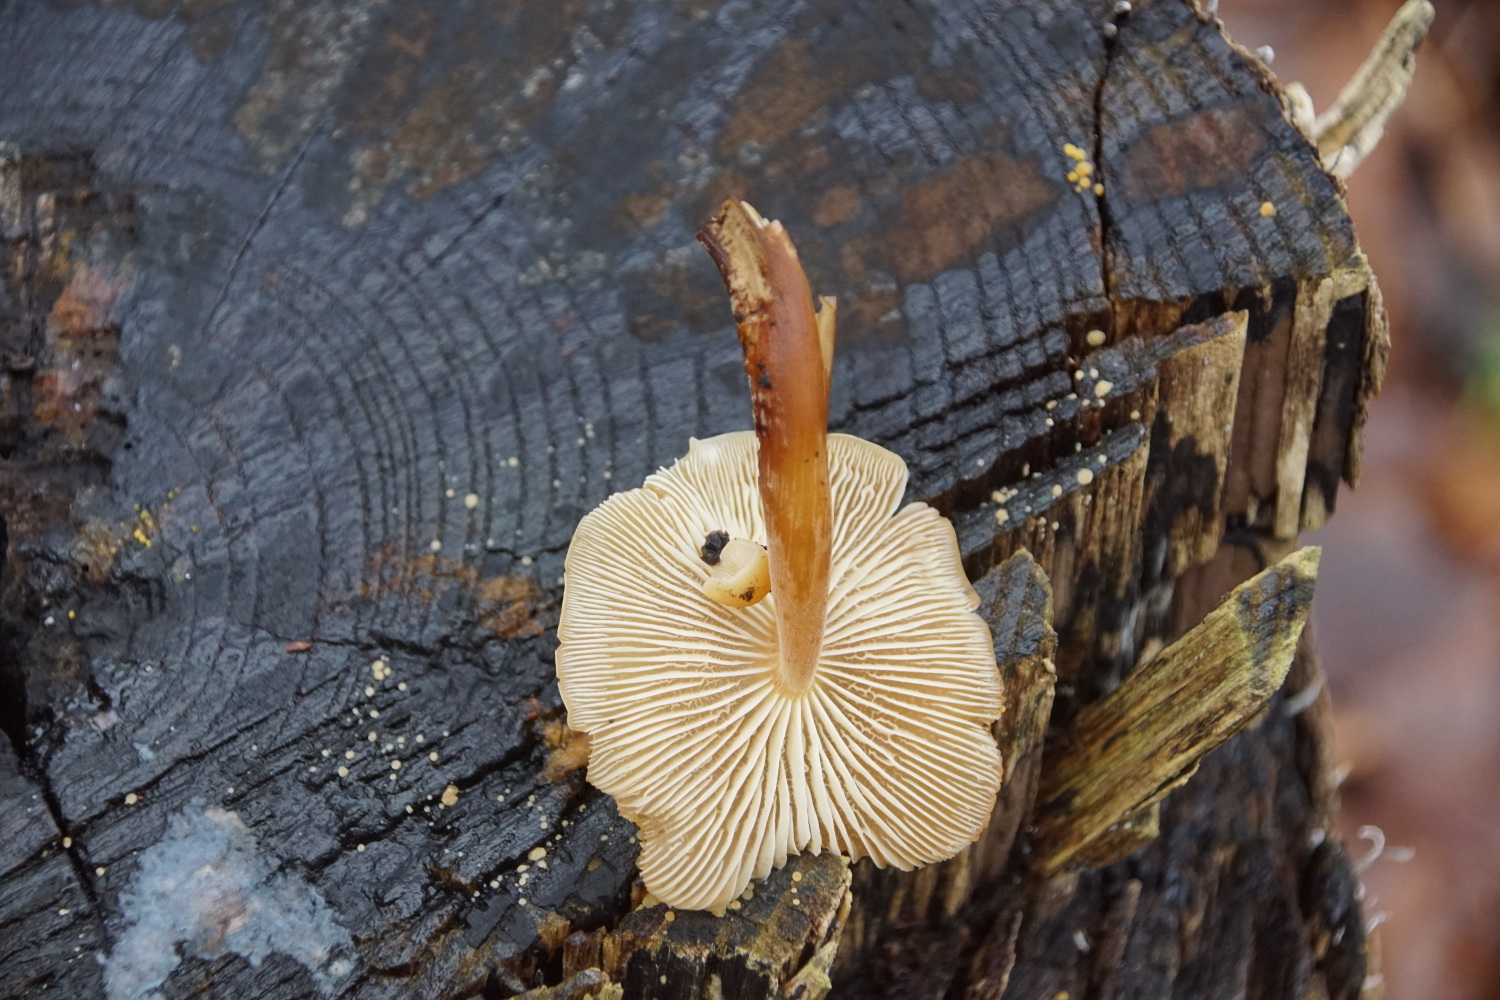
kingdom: Fungi
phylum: Basidiomycota
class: Agaricomycetes
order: Agaricales
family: Physalacriaceae
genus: Flammulina
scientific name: Flammulina velutipes
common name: gul fløjlsfod
